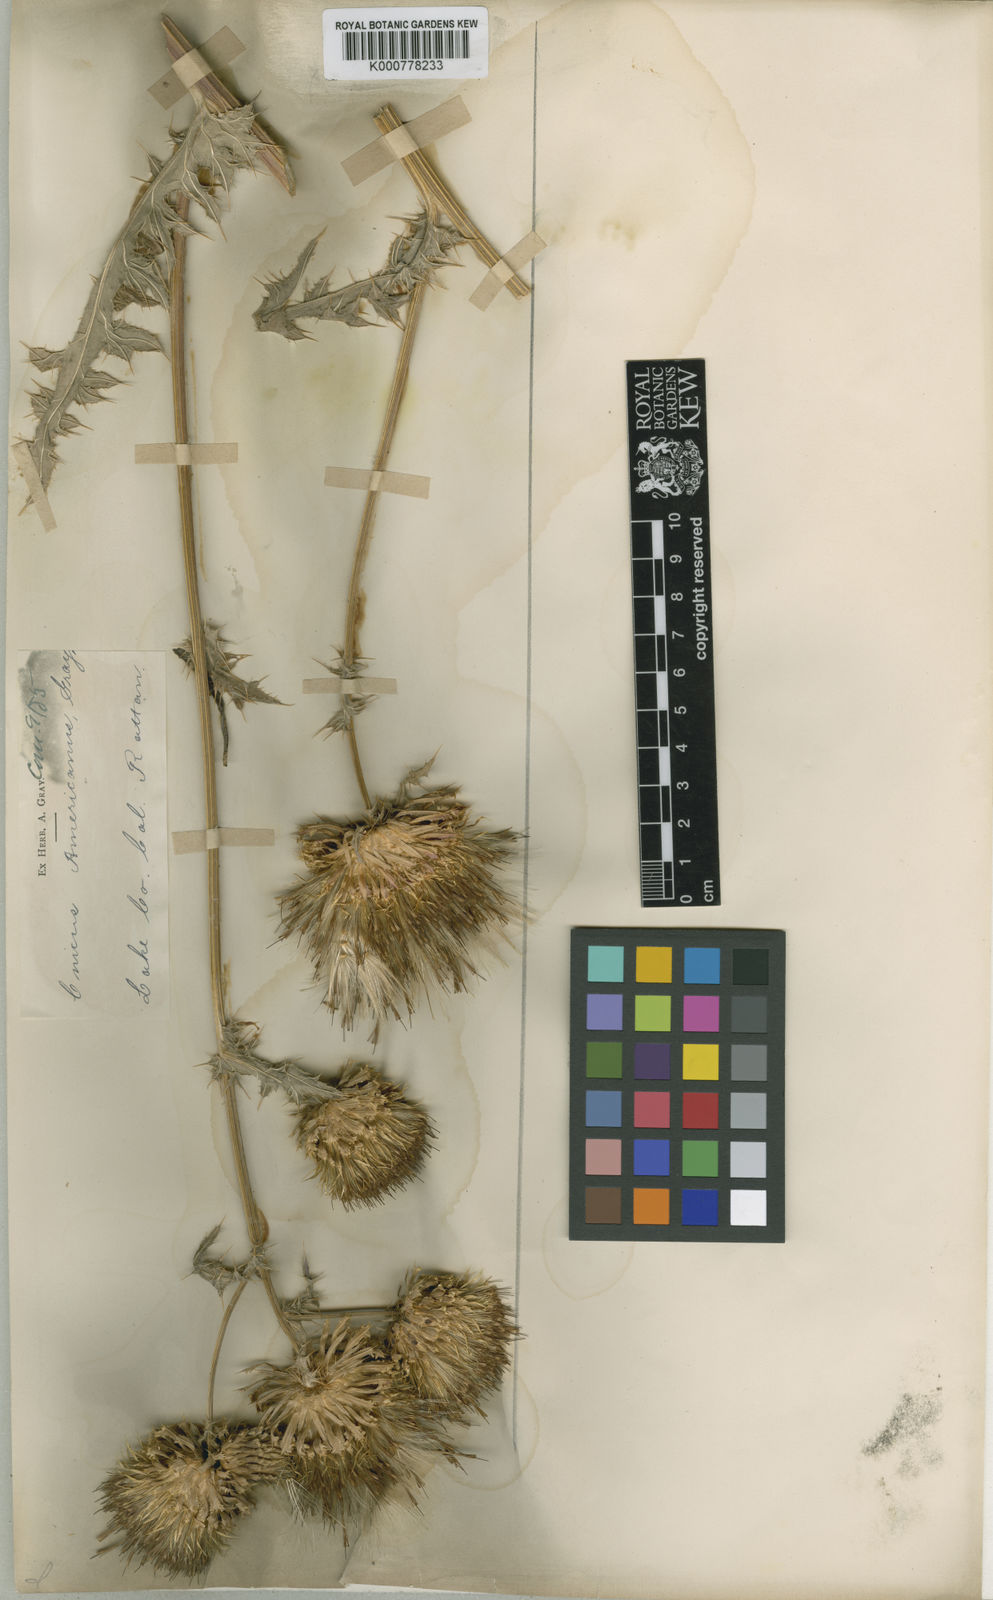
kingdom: Plantae
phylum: Tracheophyta
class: Magnoliopsida
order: Asterales
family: Asteraceae
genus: Cirsium
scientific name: Cirsium
